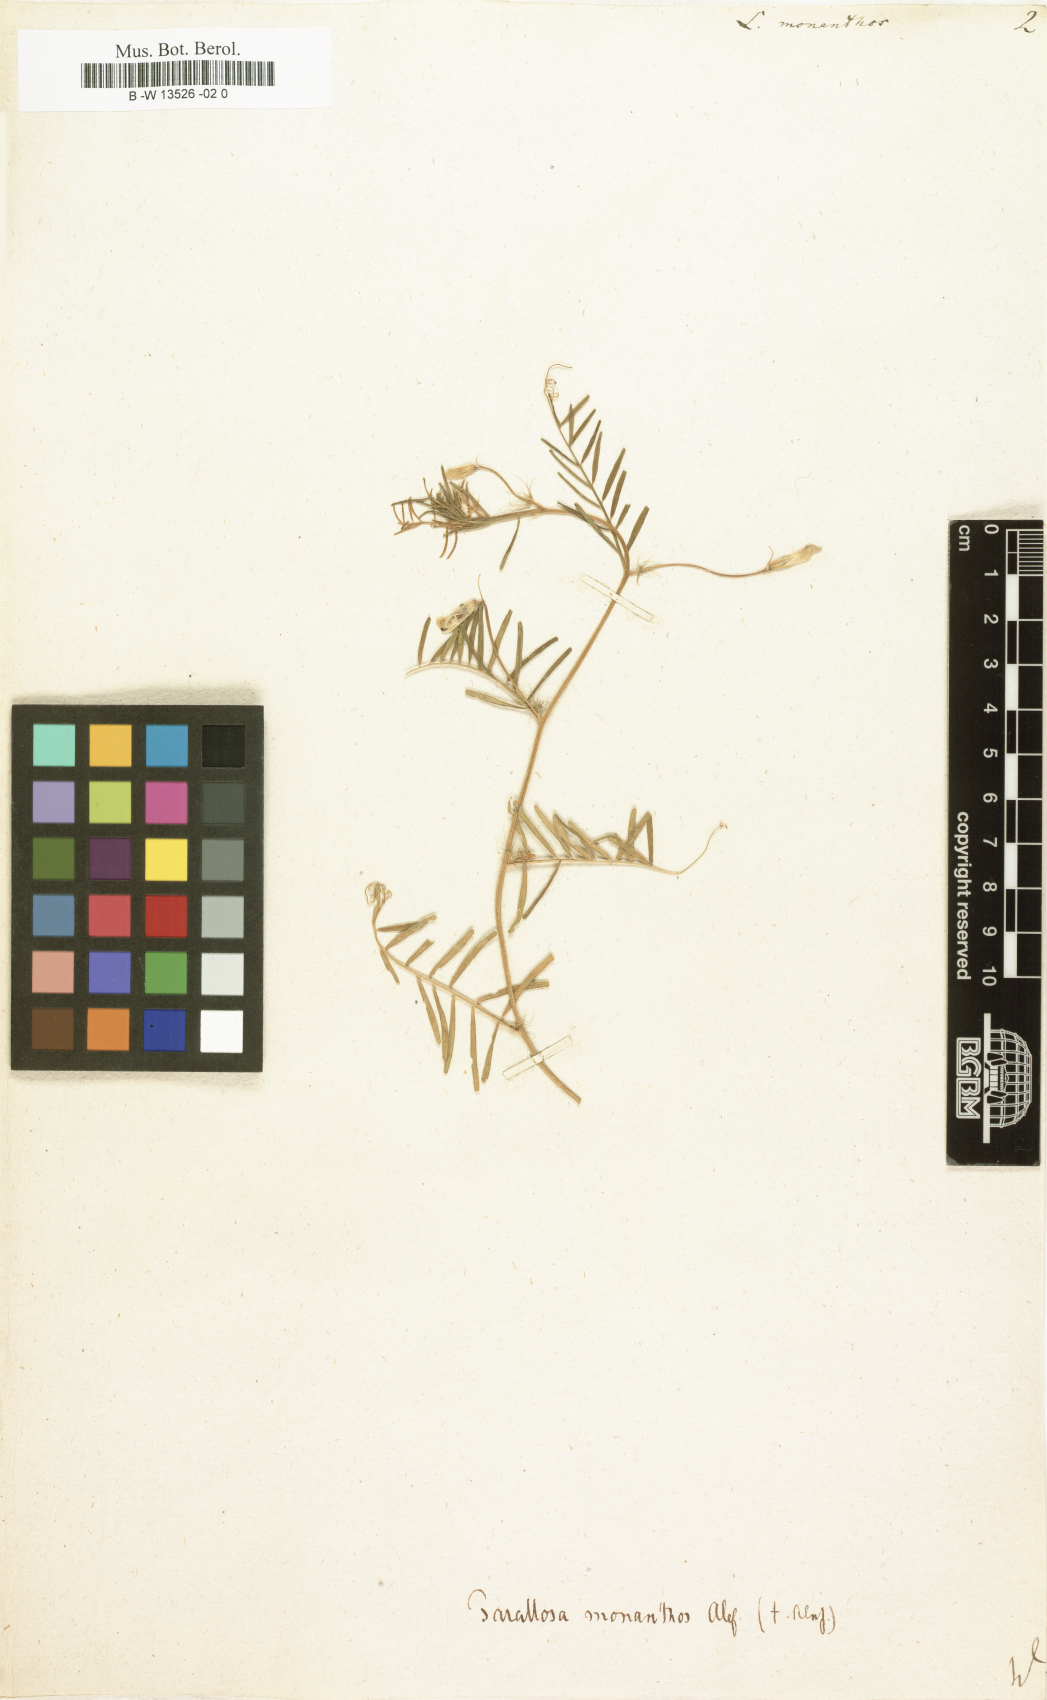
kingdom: Plantae
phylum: Tracheophyta
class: Magnoliopsida
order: Fabales
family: Fabaceae
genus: Vicia
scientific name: Vicia
